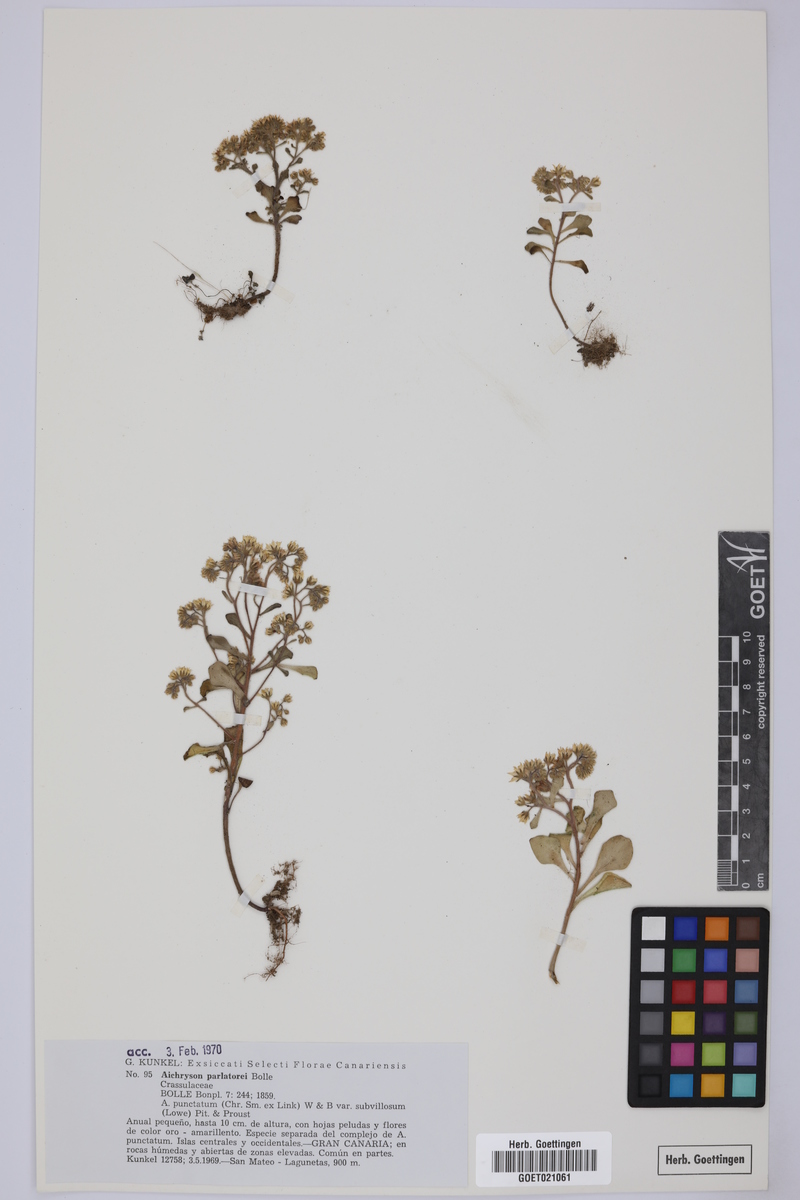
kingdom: Plantae
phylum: Tracheophyta
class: Magnoliopsida
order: Saxifragales
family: Crassulaceae
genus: Aichryson
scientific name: Aichryson parlatorei
